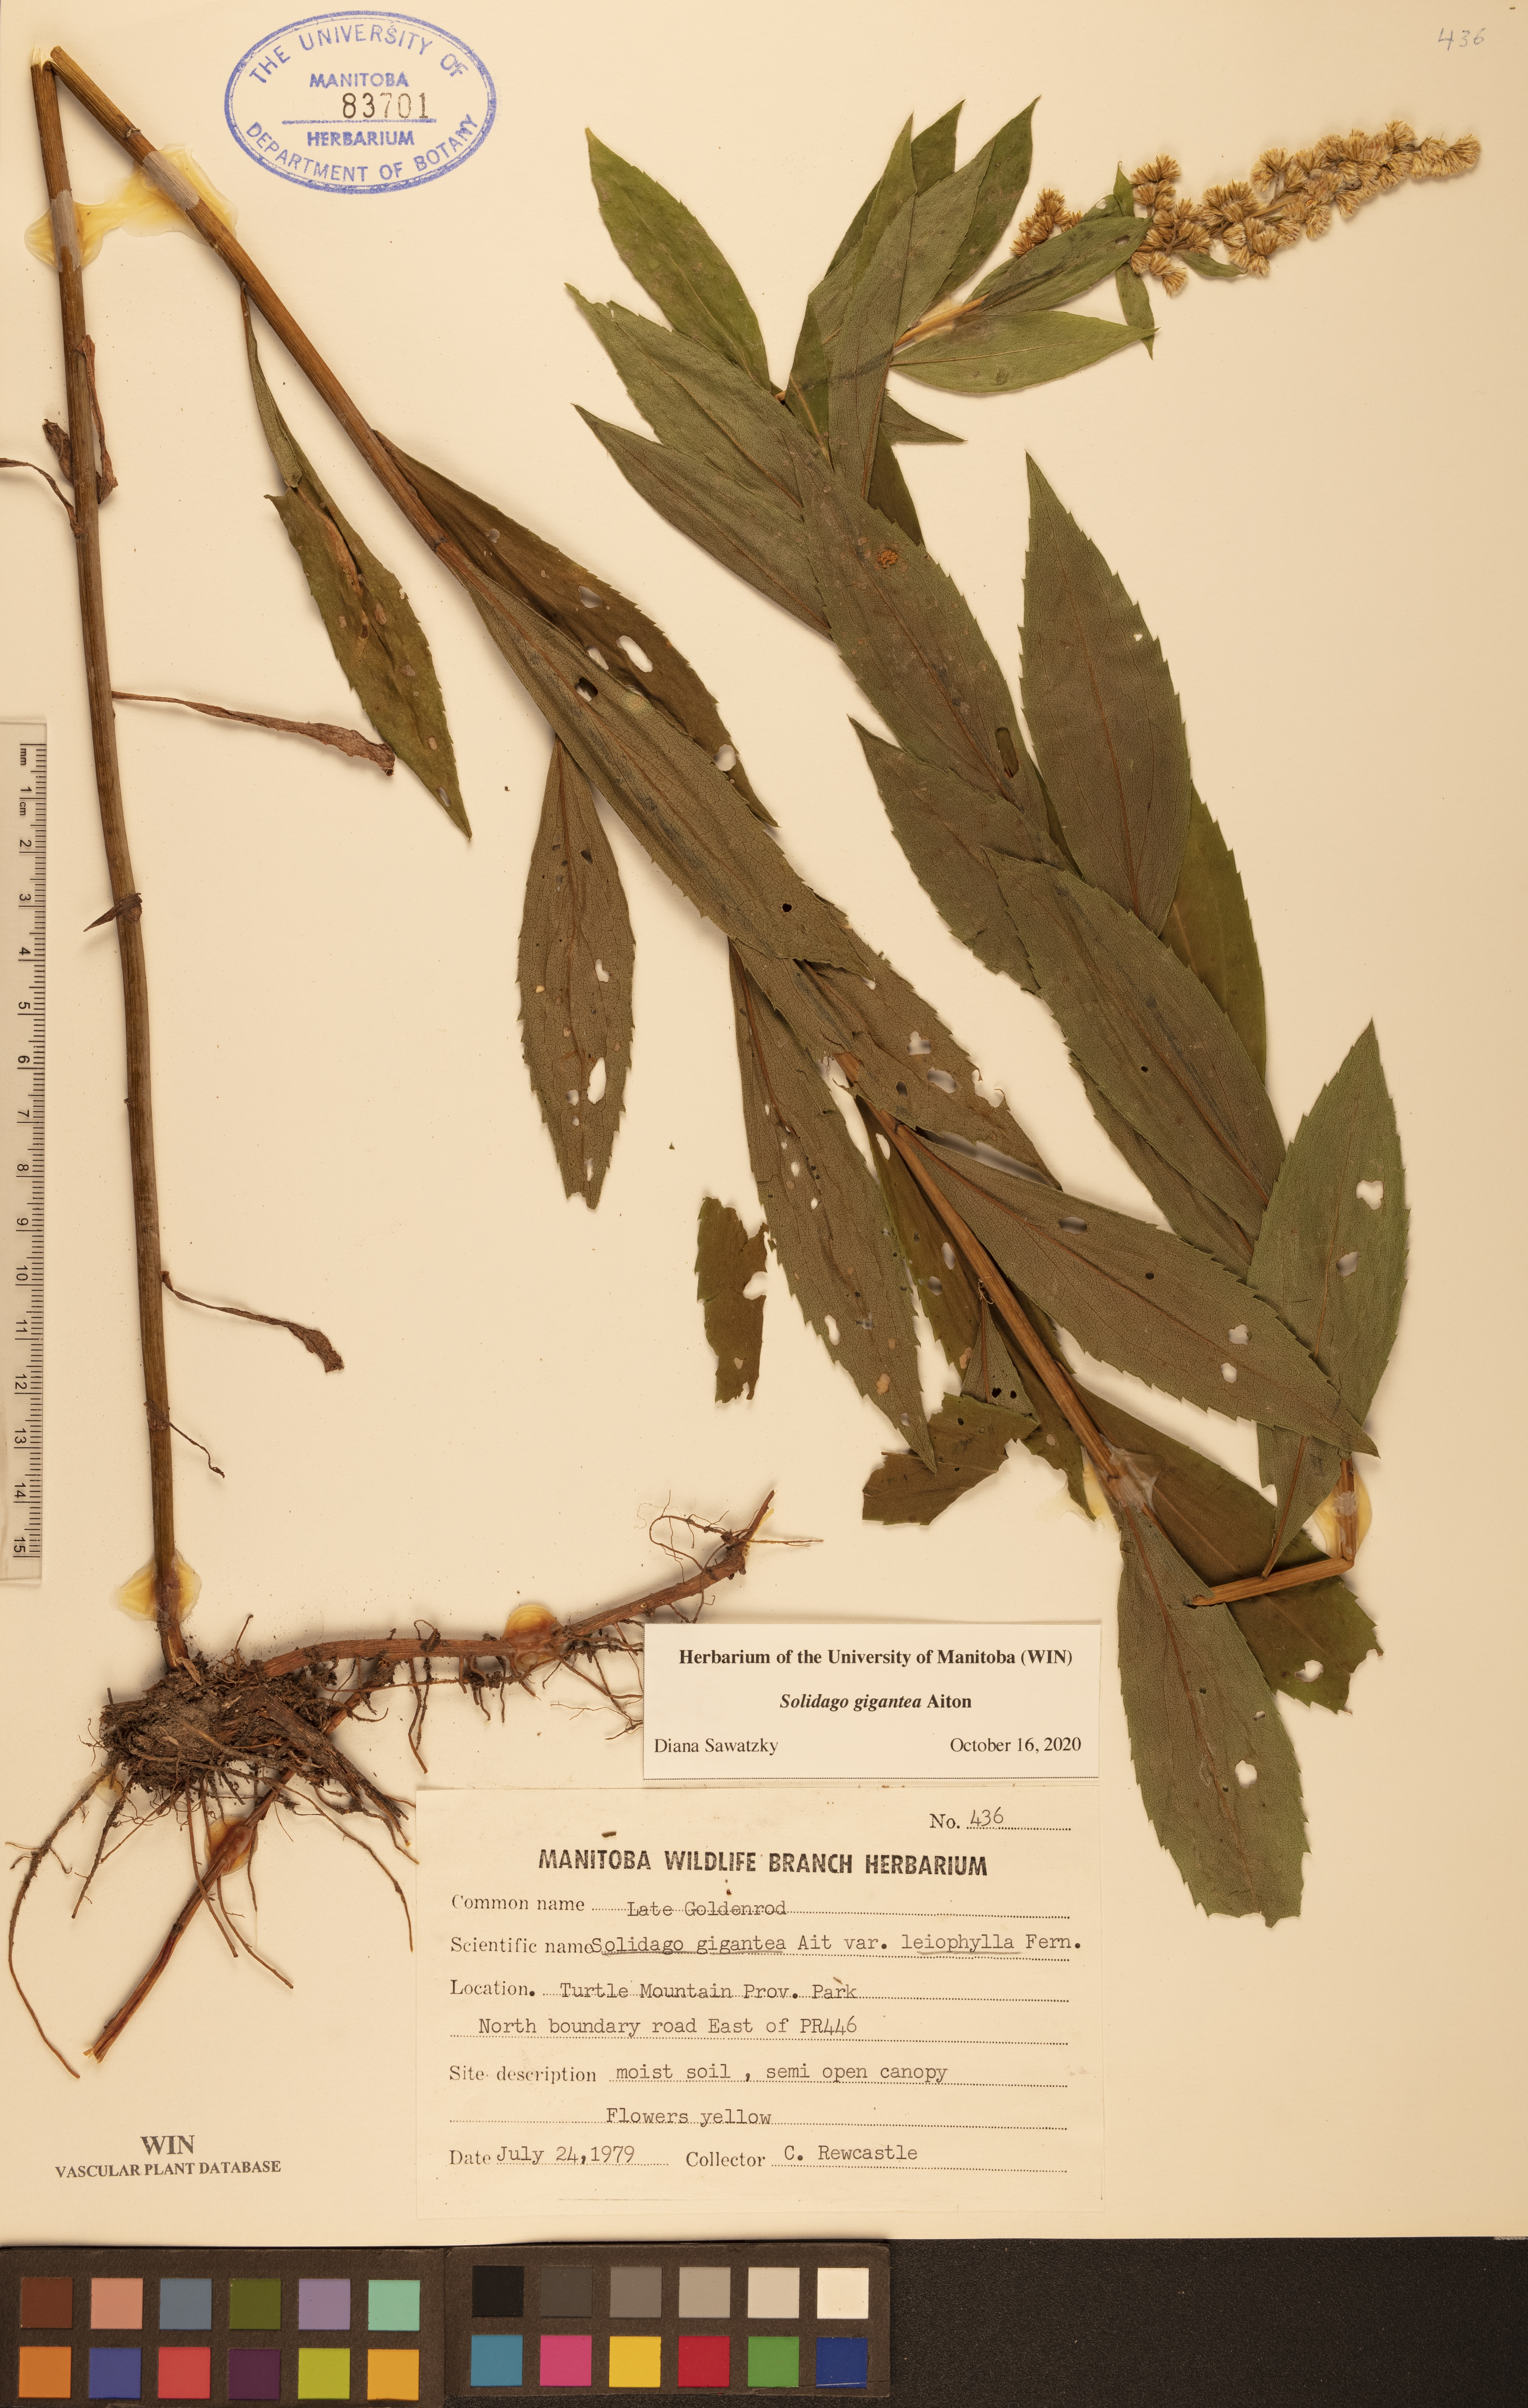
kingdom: Plantae
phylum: Tracheophyta
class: Magnoliopsida
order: Asterales
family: Asteraceae
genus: Solidago
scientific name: Solidago gigantea
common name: Giant goldenrod
